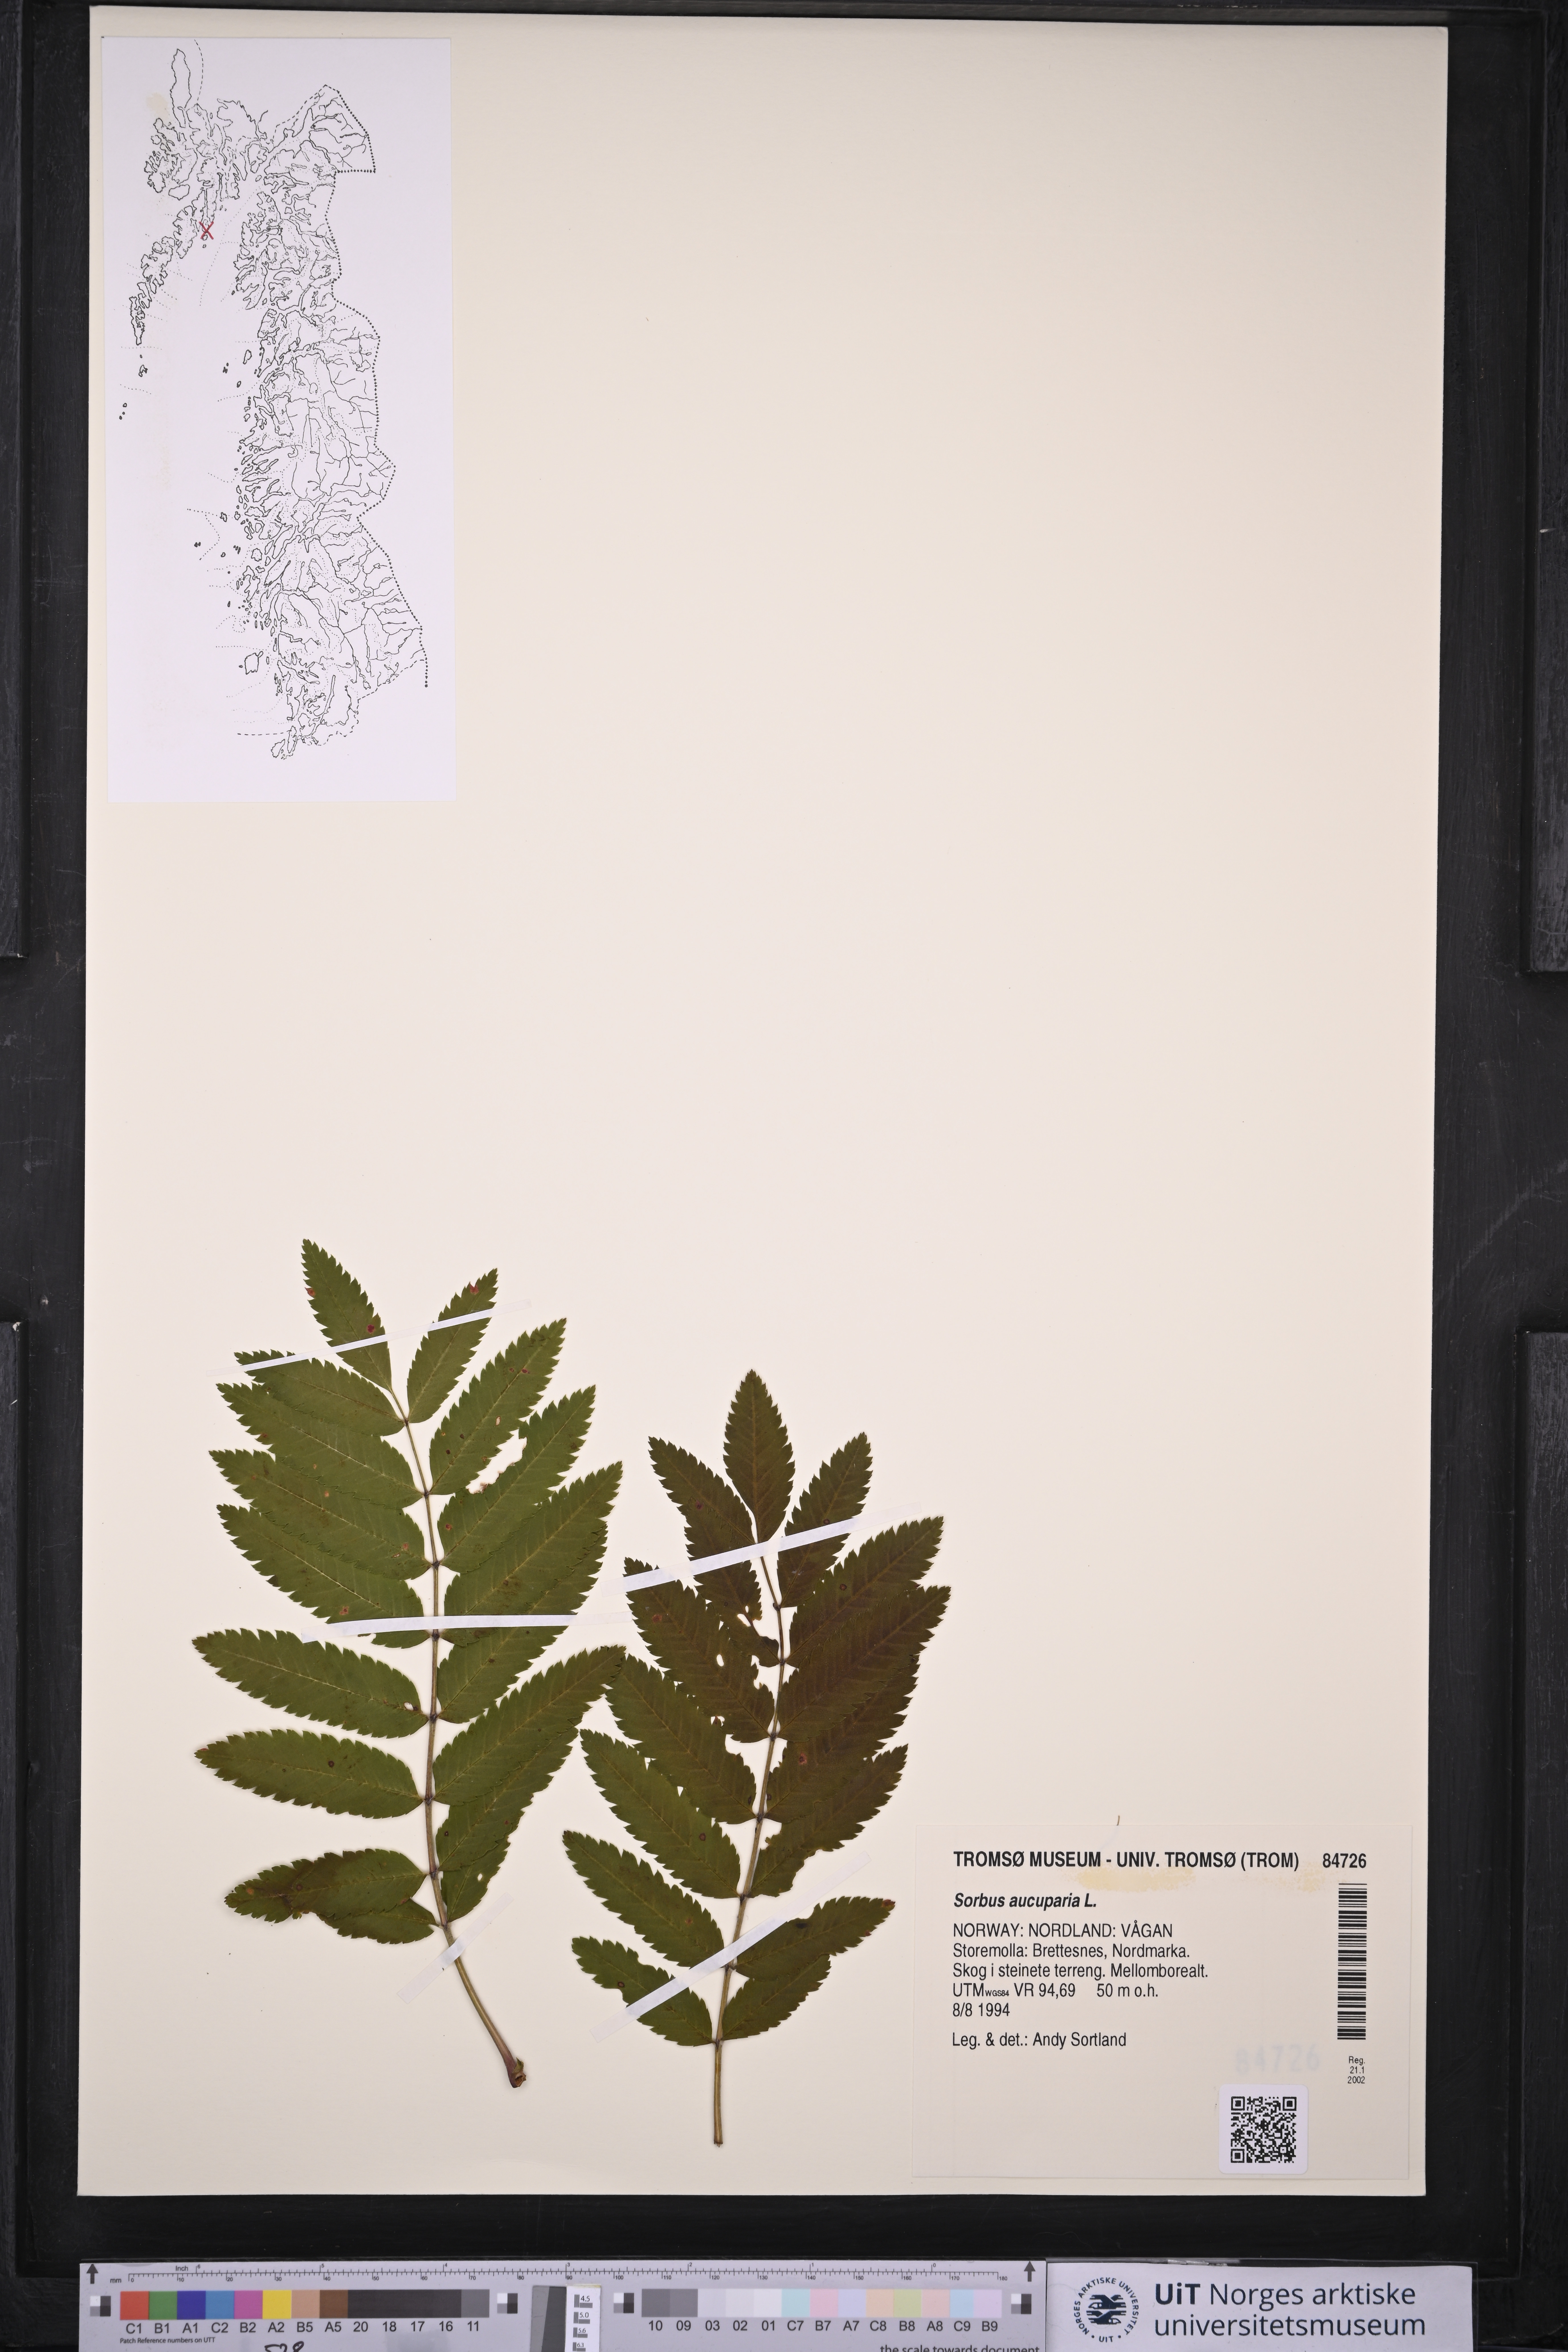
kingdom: Plantae
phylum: Tracheophyta
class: Magnoliopsida
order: Rosales
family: Rosaceae
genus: Sorbus
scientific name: Sorbus aucuparia
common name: Rowan
